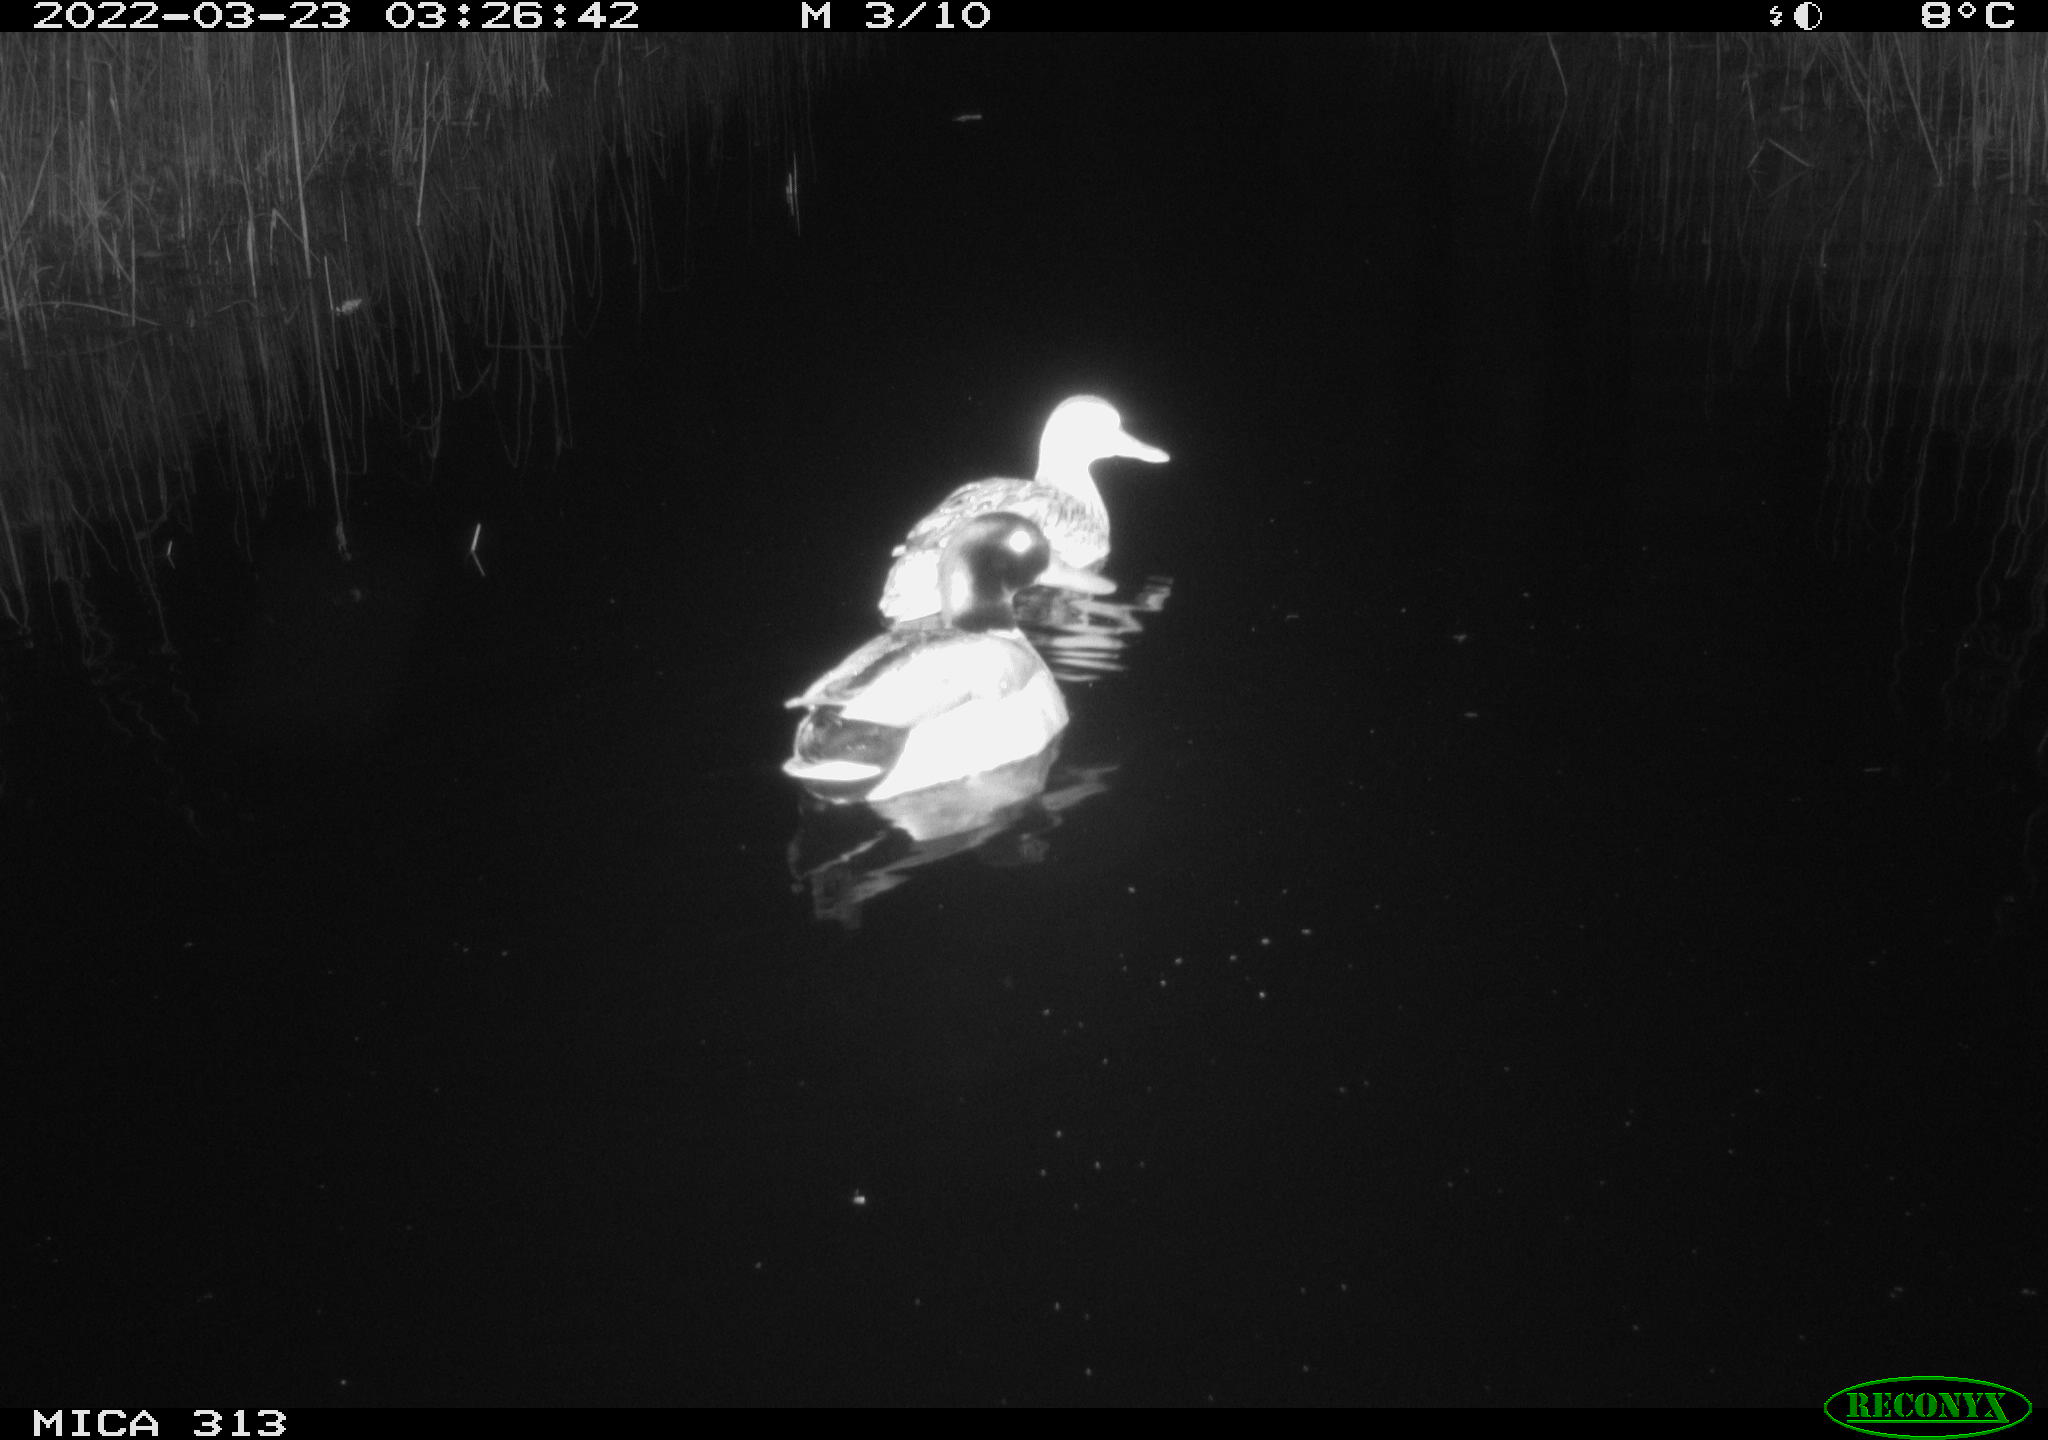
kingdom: Animalia
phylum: Chordata
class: Aves
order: Anseriformes
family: Anatidae
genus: Anas
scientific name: Anas platyrhynchos
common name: Mallard
